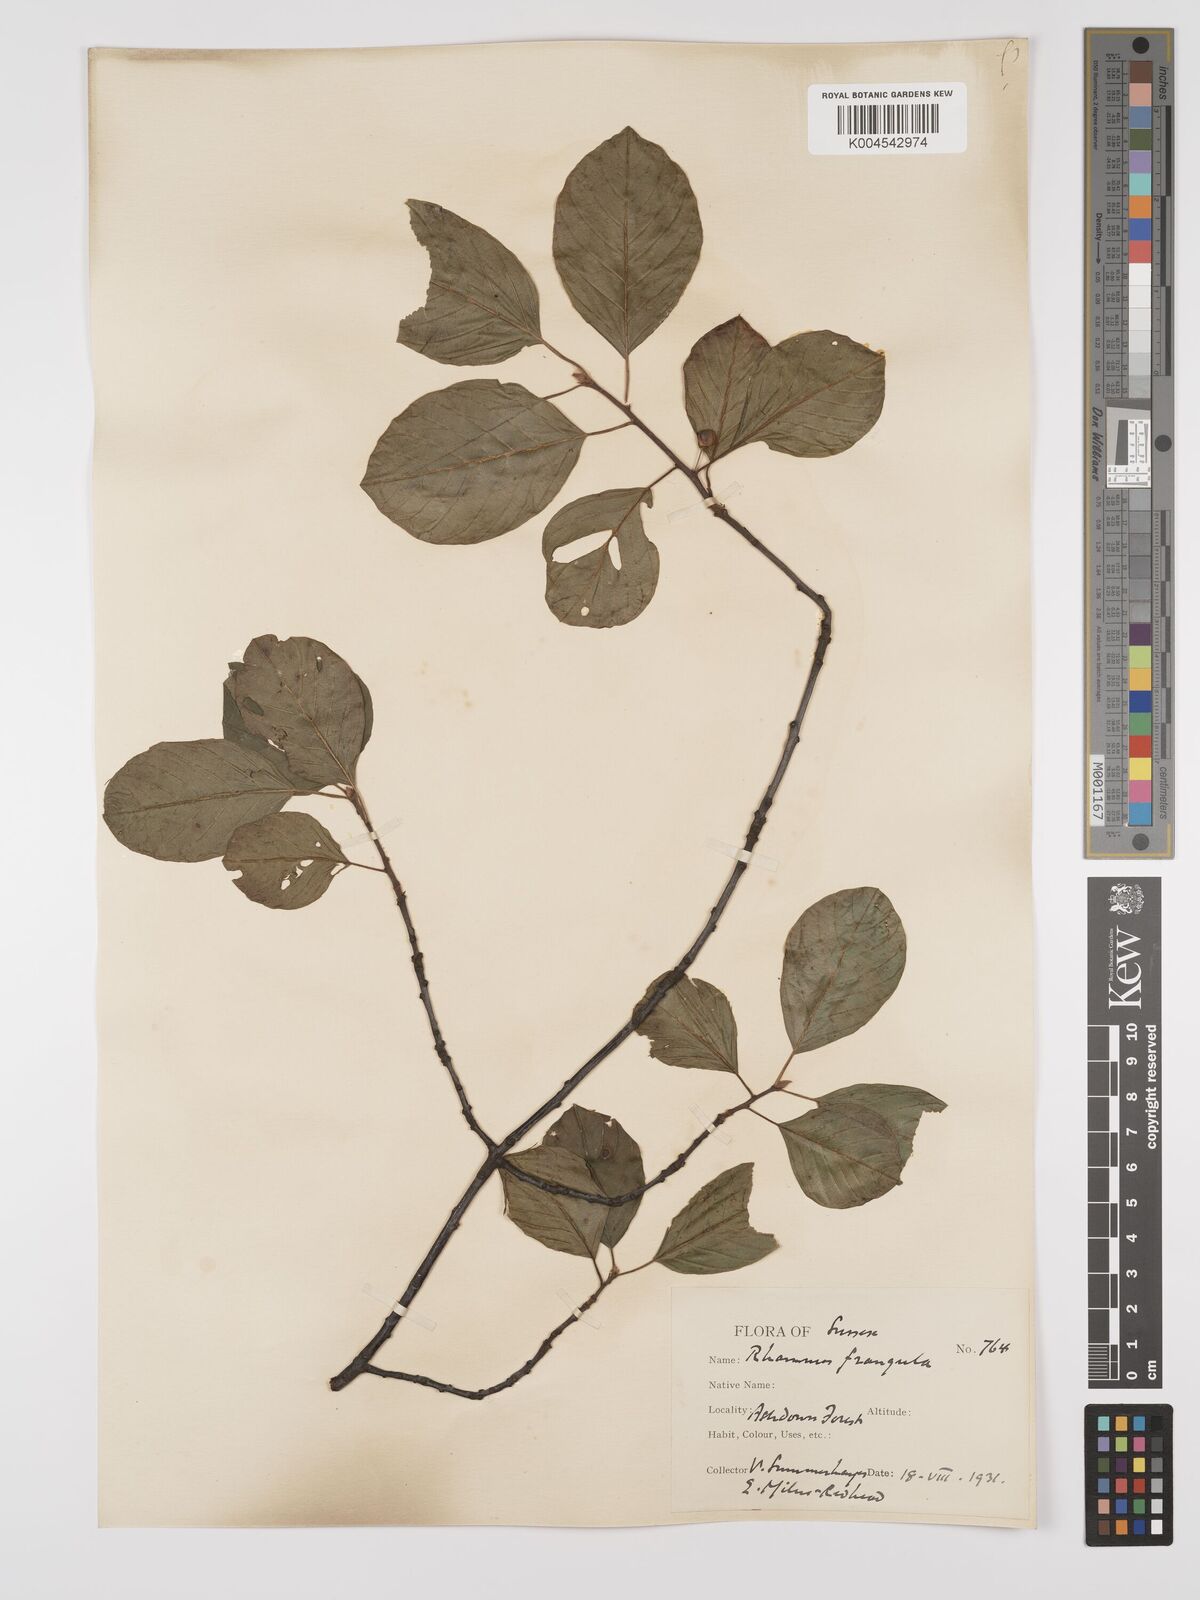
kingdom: Plantae
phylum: Tracheophyta
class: Magnoliopsida
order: Rosales
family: Rhamnaceae
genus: Frangula
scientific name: Frangula alnus
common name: Alder buckthorn
